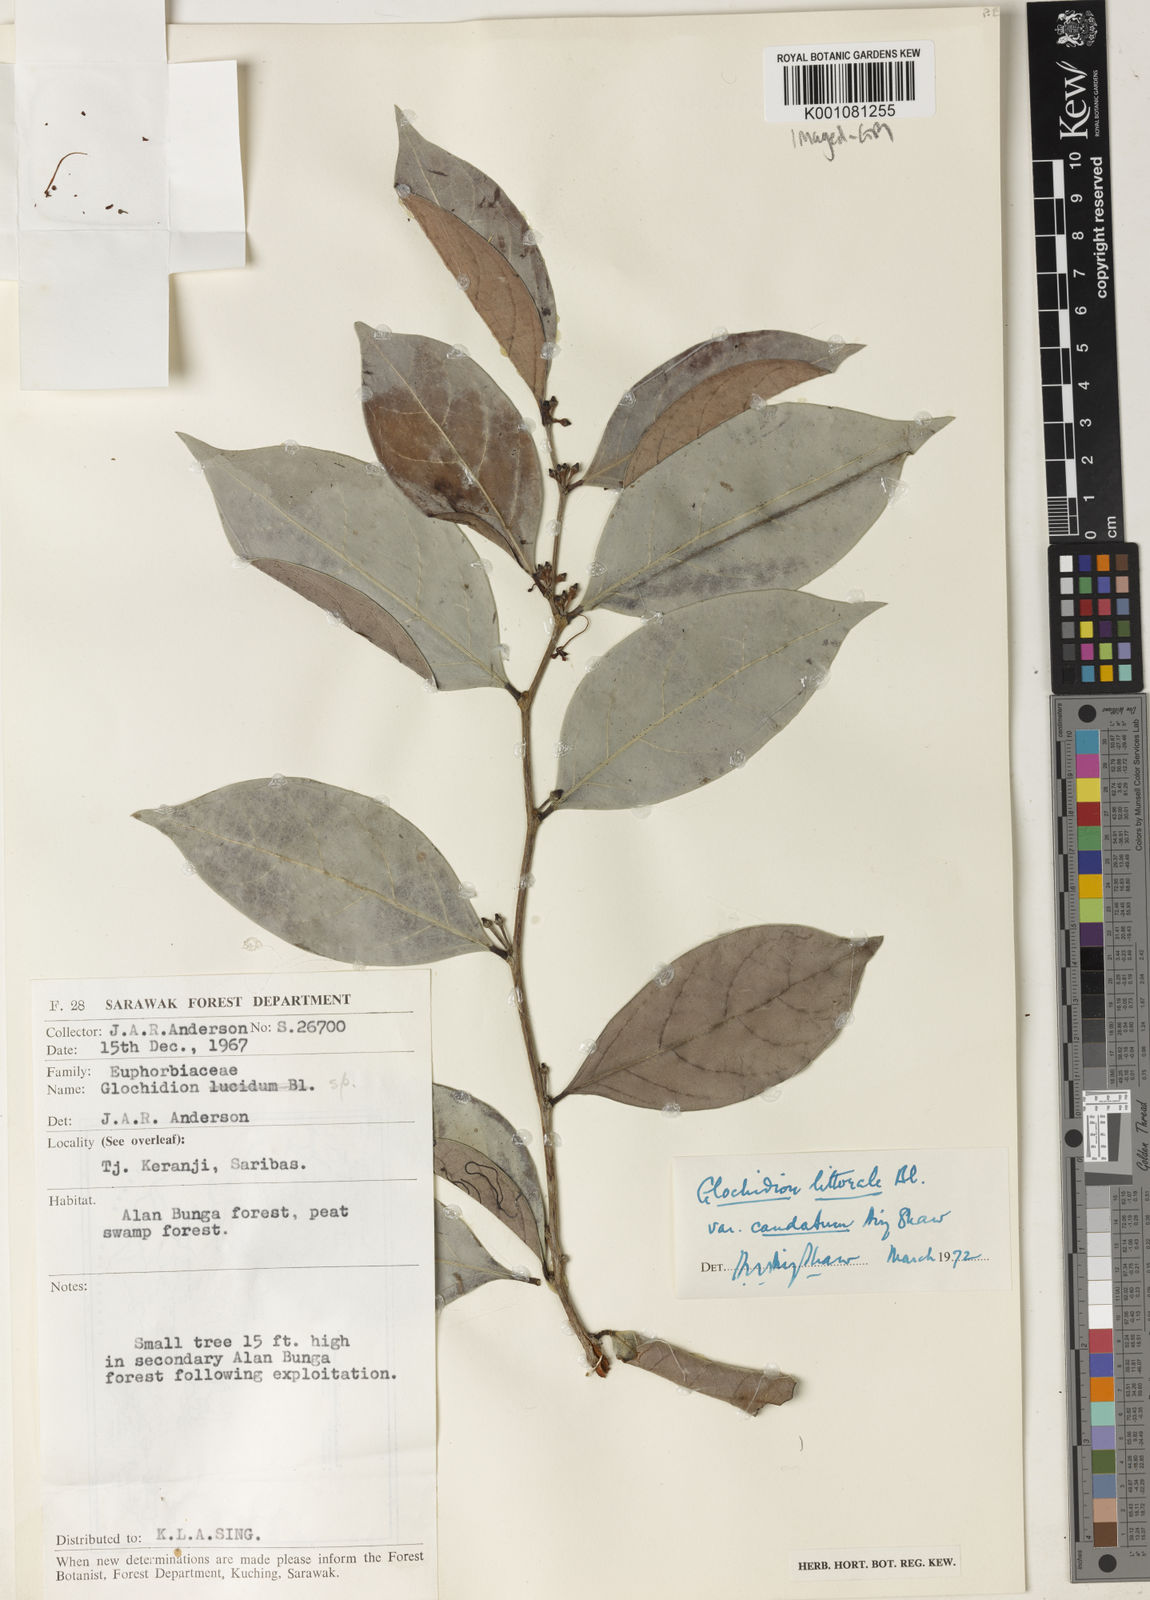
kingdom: Plantae
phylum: Tracheophyta
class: Magnoliopsida
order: Malpighiales
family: Phyllanthaceae
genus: Glochidion
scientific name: Glochidion littorale
